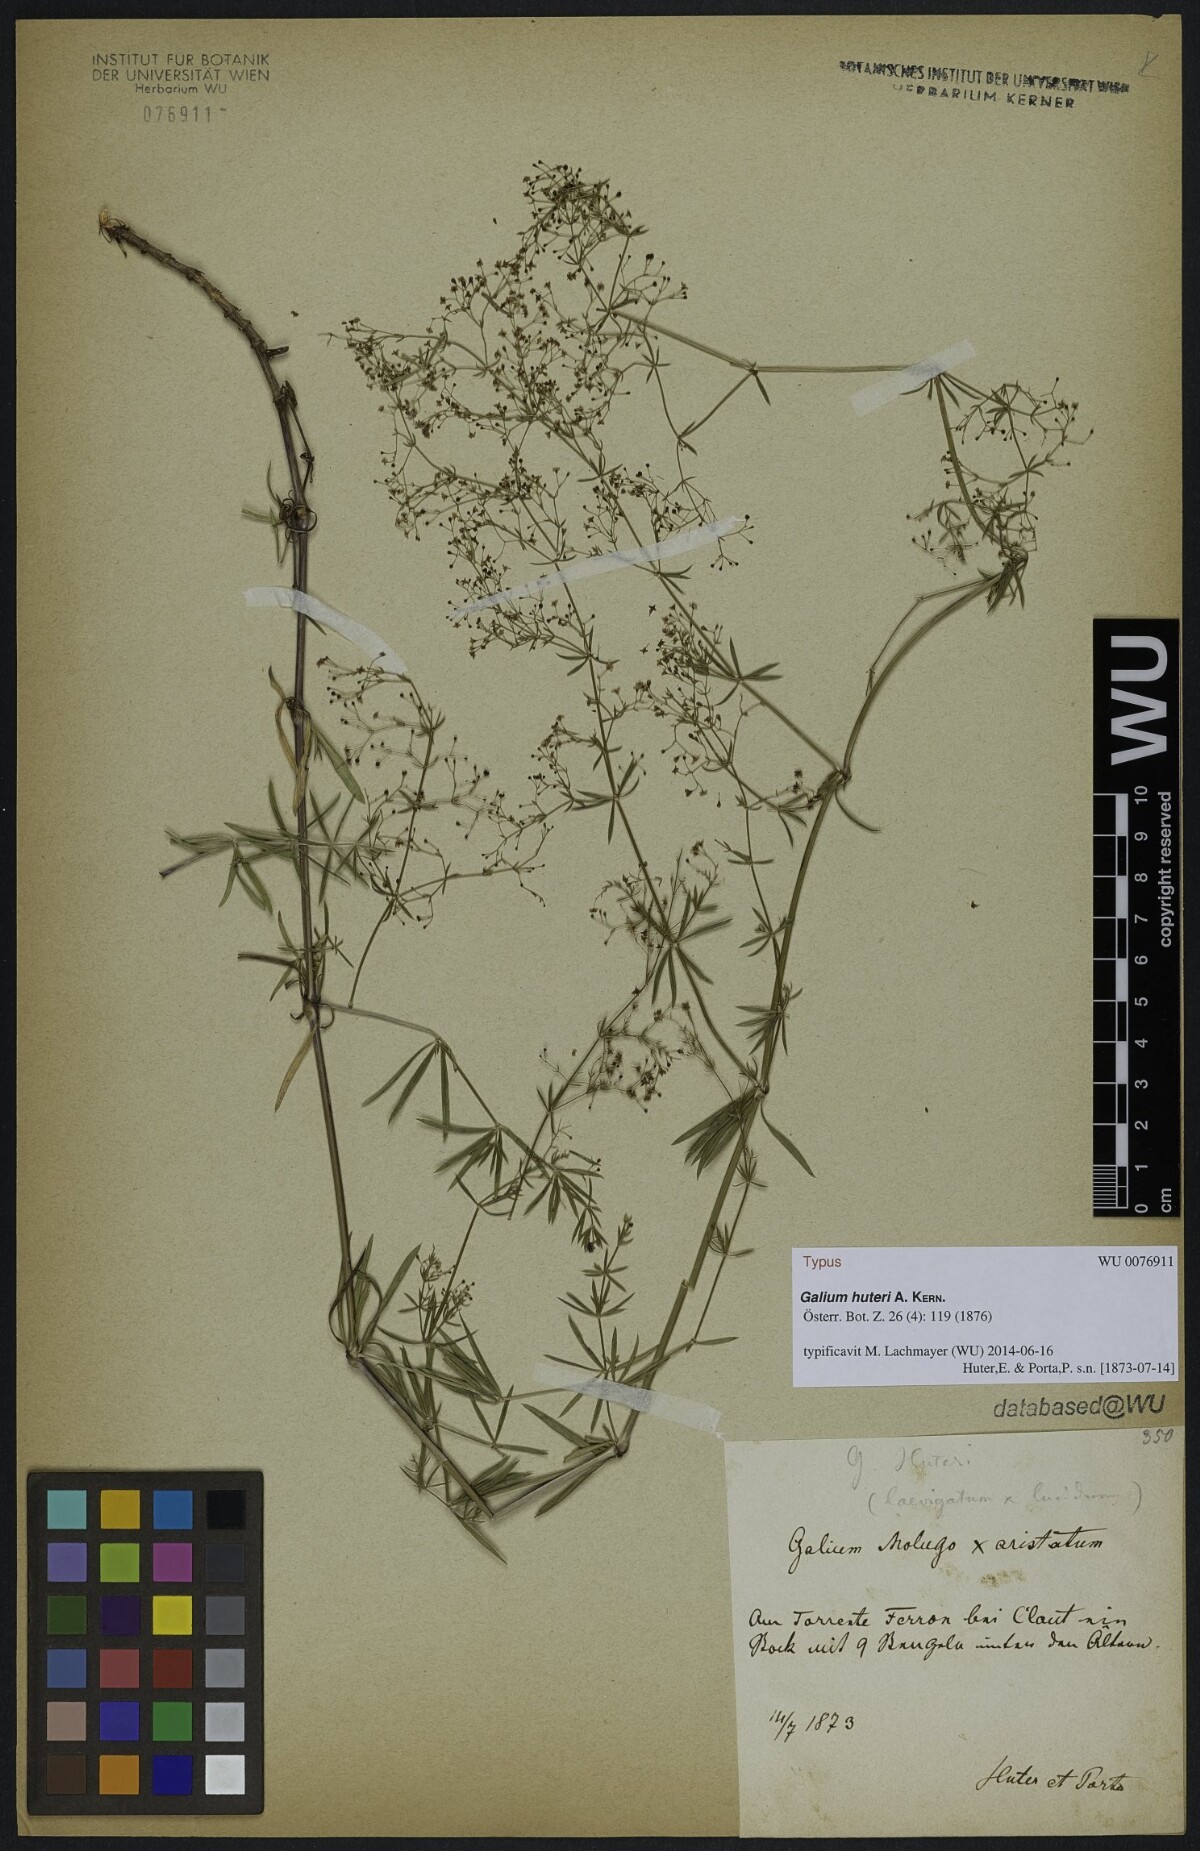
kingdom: Plantae
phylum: Tracheophyta
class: Magnoliopsida
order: Gentianales
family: Rubiaceae
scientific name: Rubiaceae
